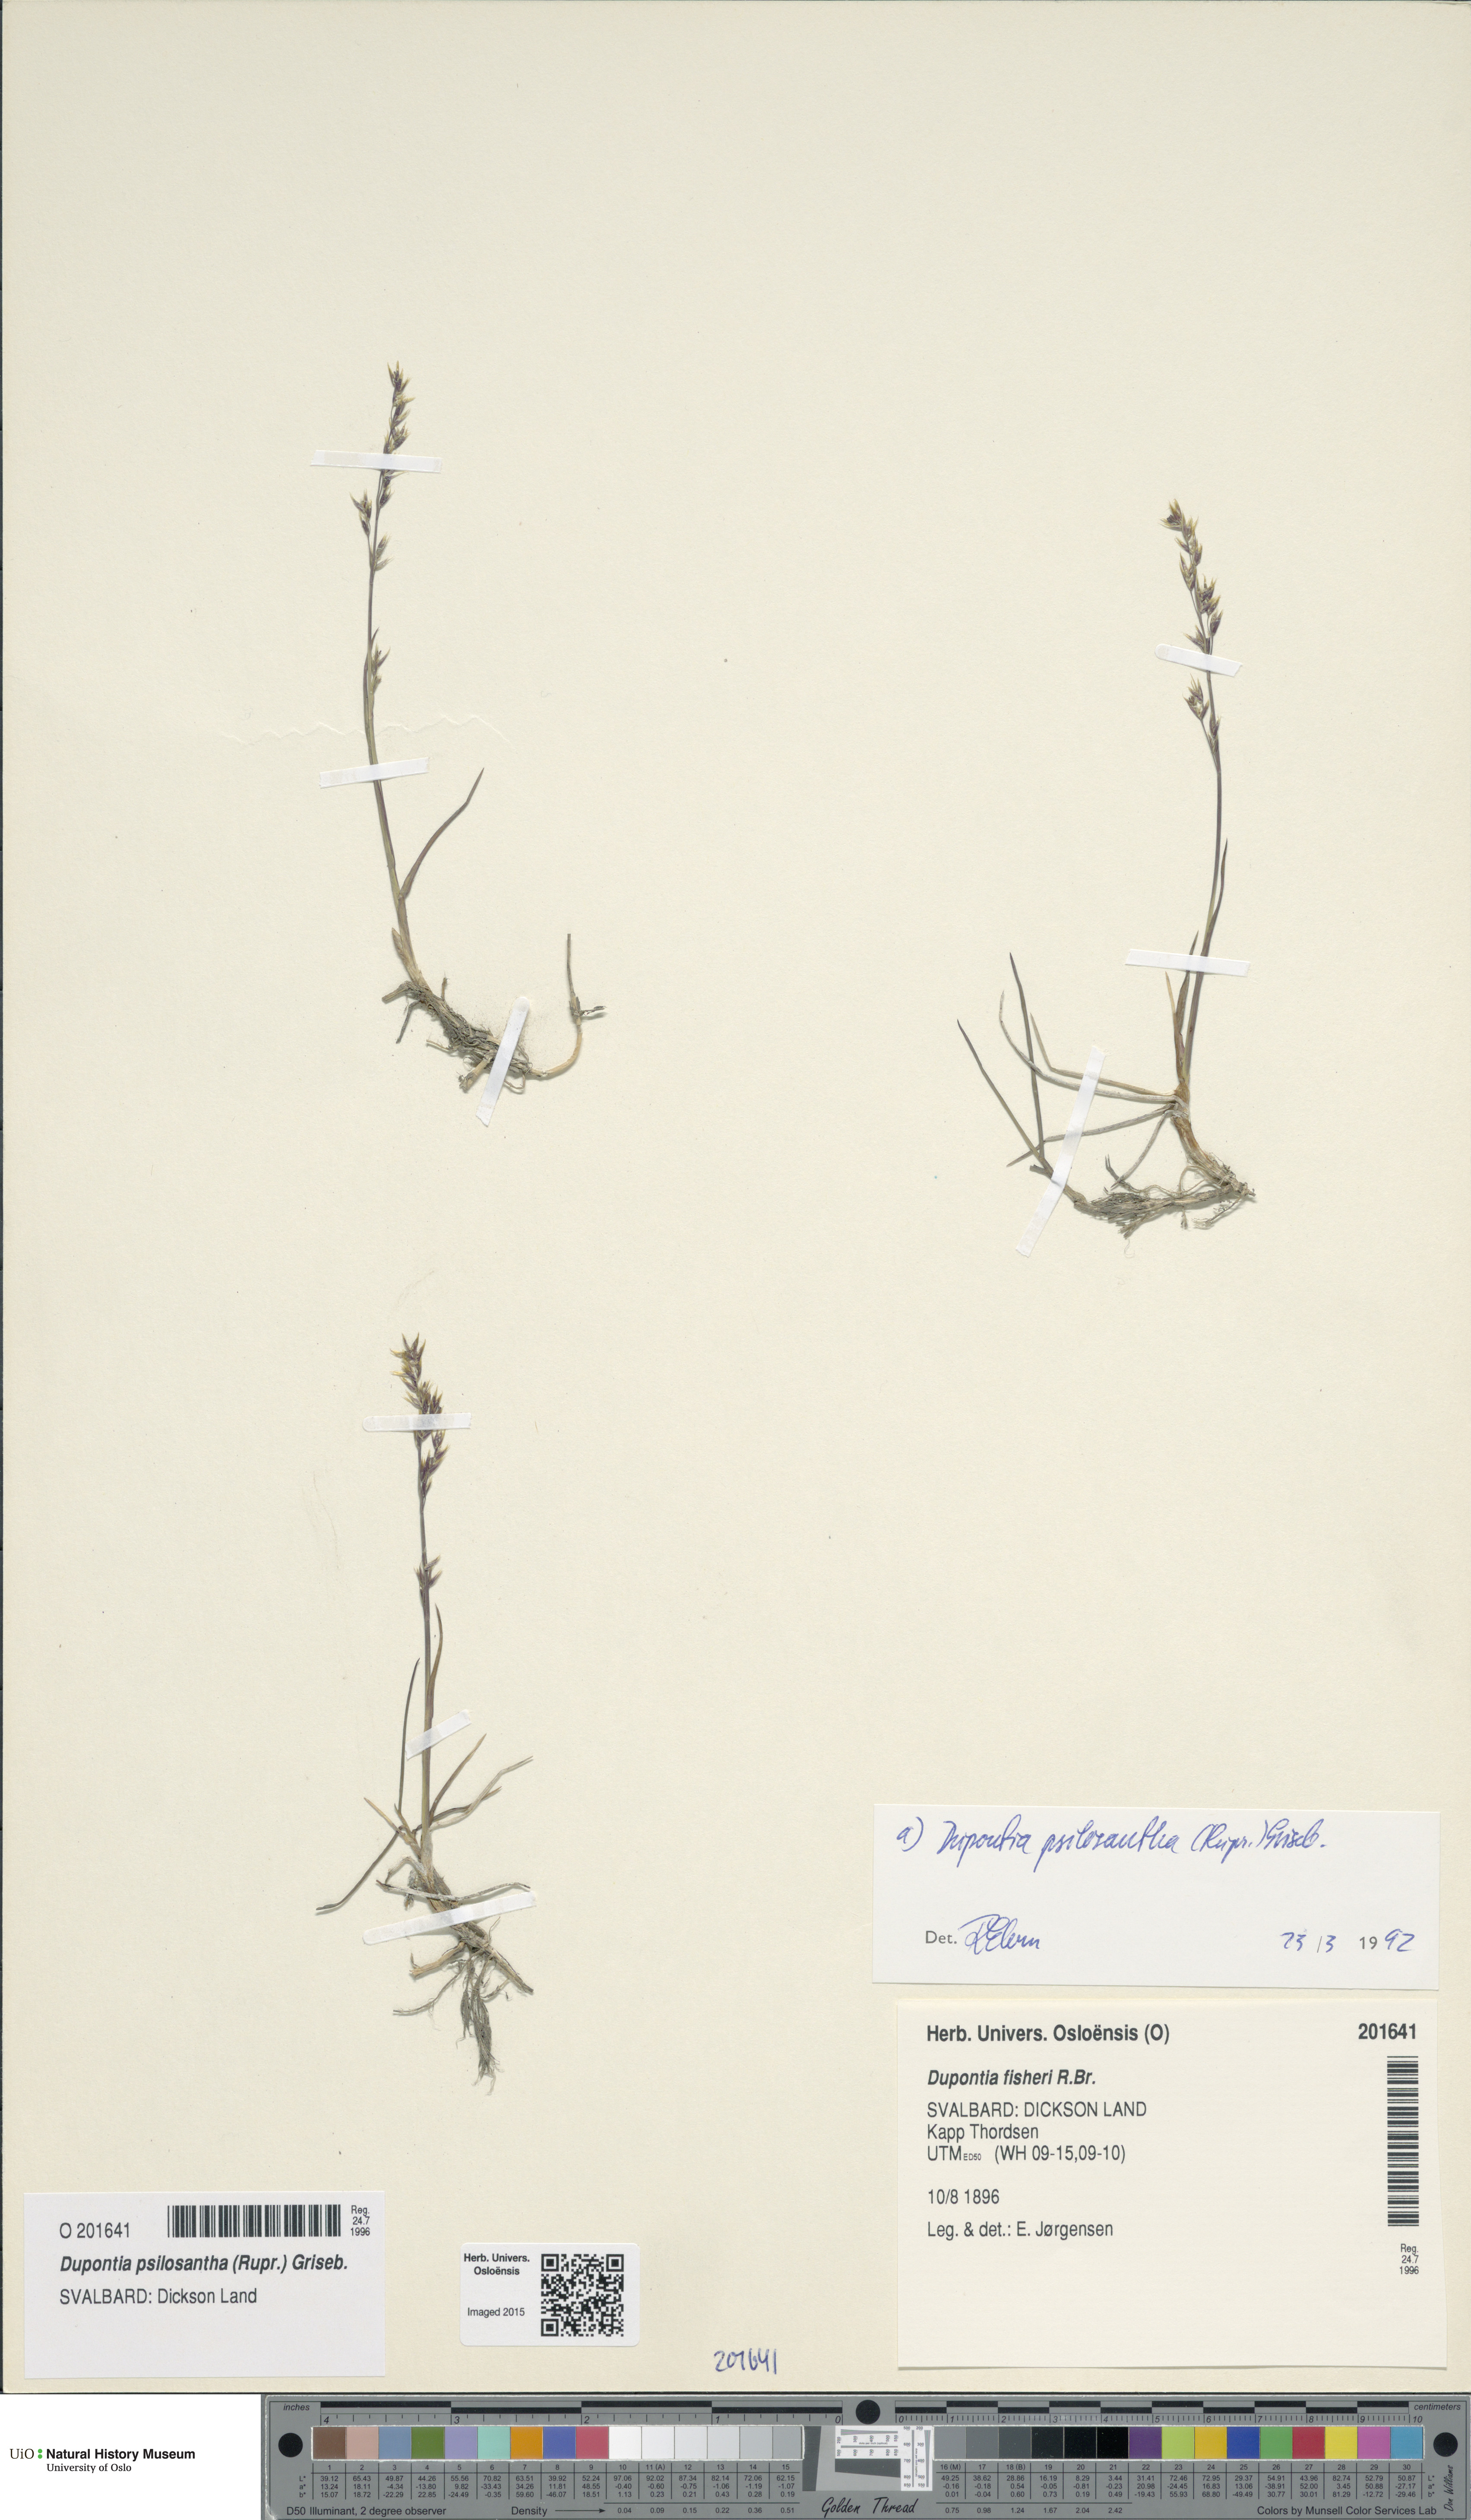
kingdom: Plantae
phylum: Tracheophyta
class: Liliopsida
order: Poales
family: Poaceae
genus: Dupontia
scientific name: Dupontia fisheri
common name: Tundra grass
